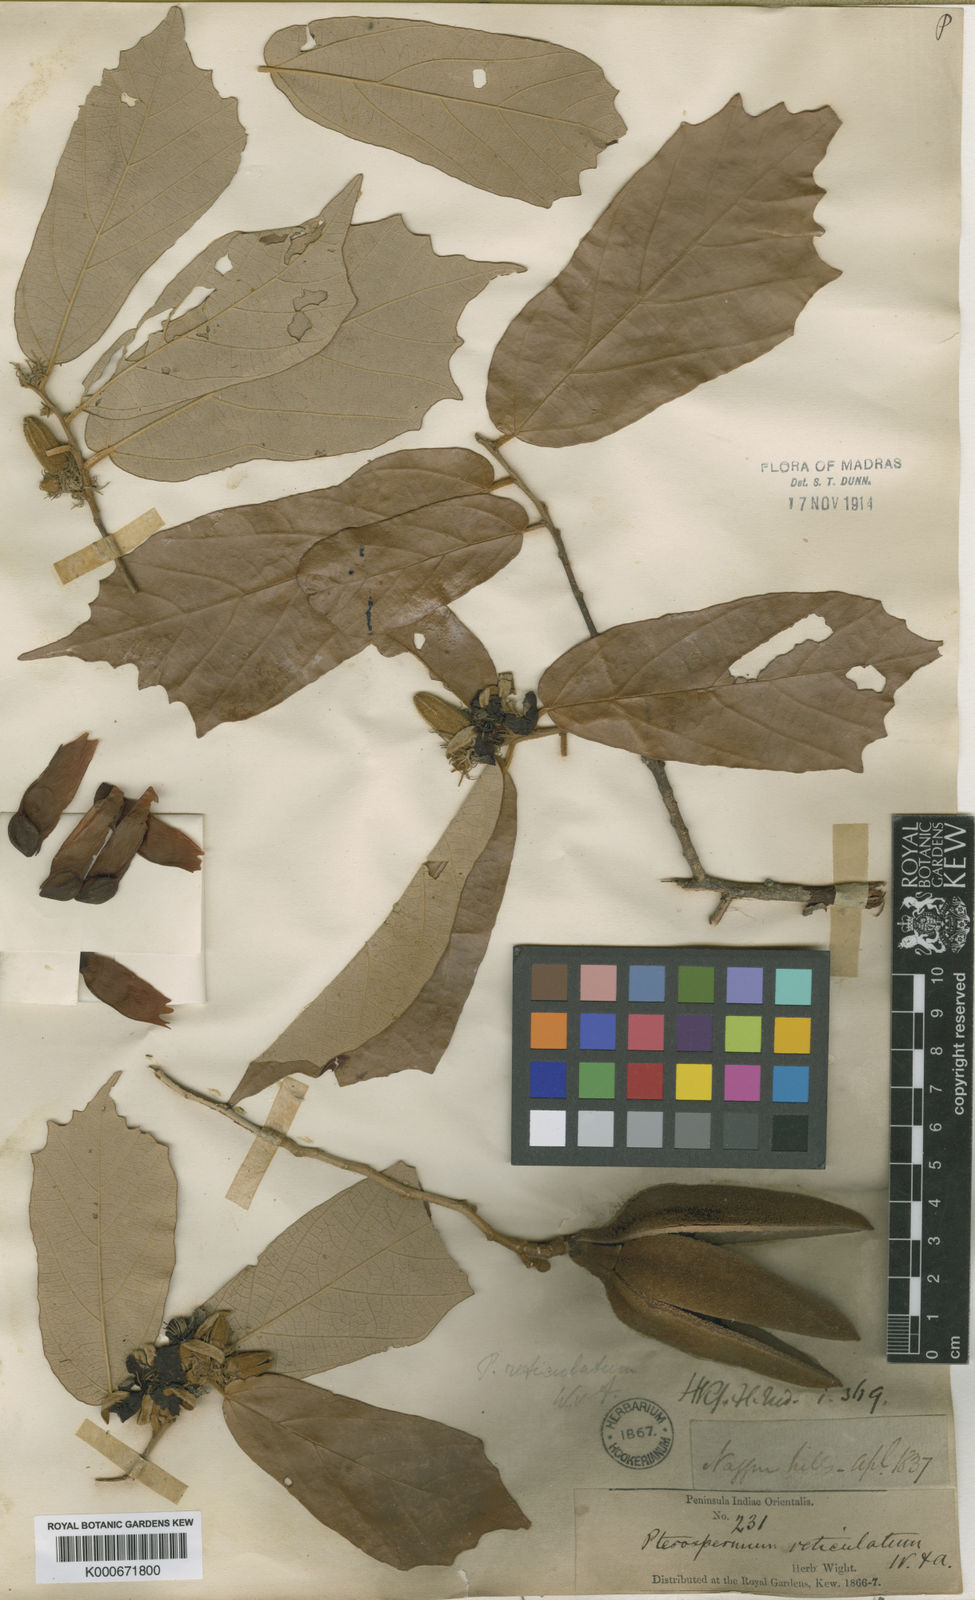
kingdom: Plantae
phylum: Tracheophyta
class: Magnoliopsida
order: Malvales
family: Malvaceae
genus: Pterospermum
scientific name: Pterospermum reticulatum
